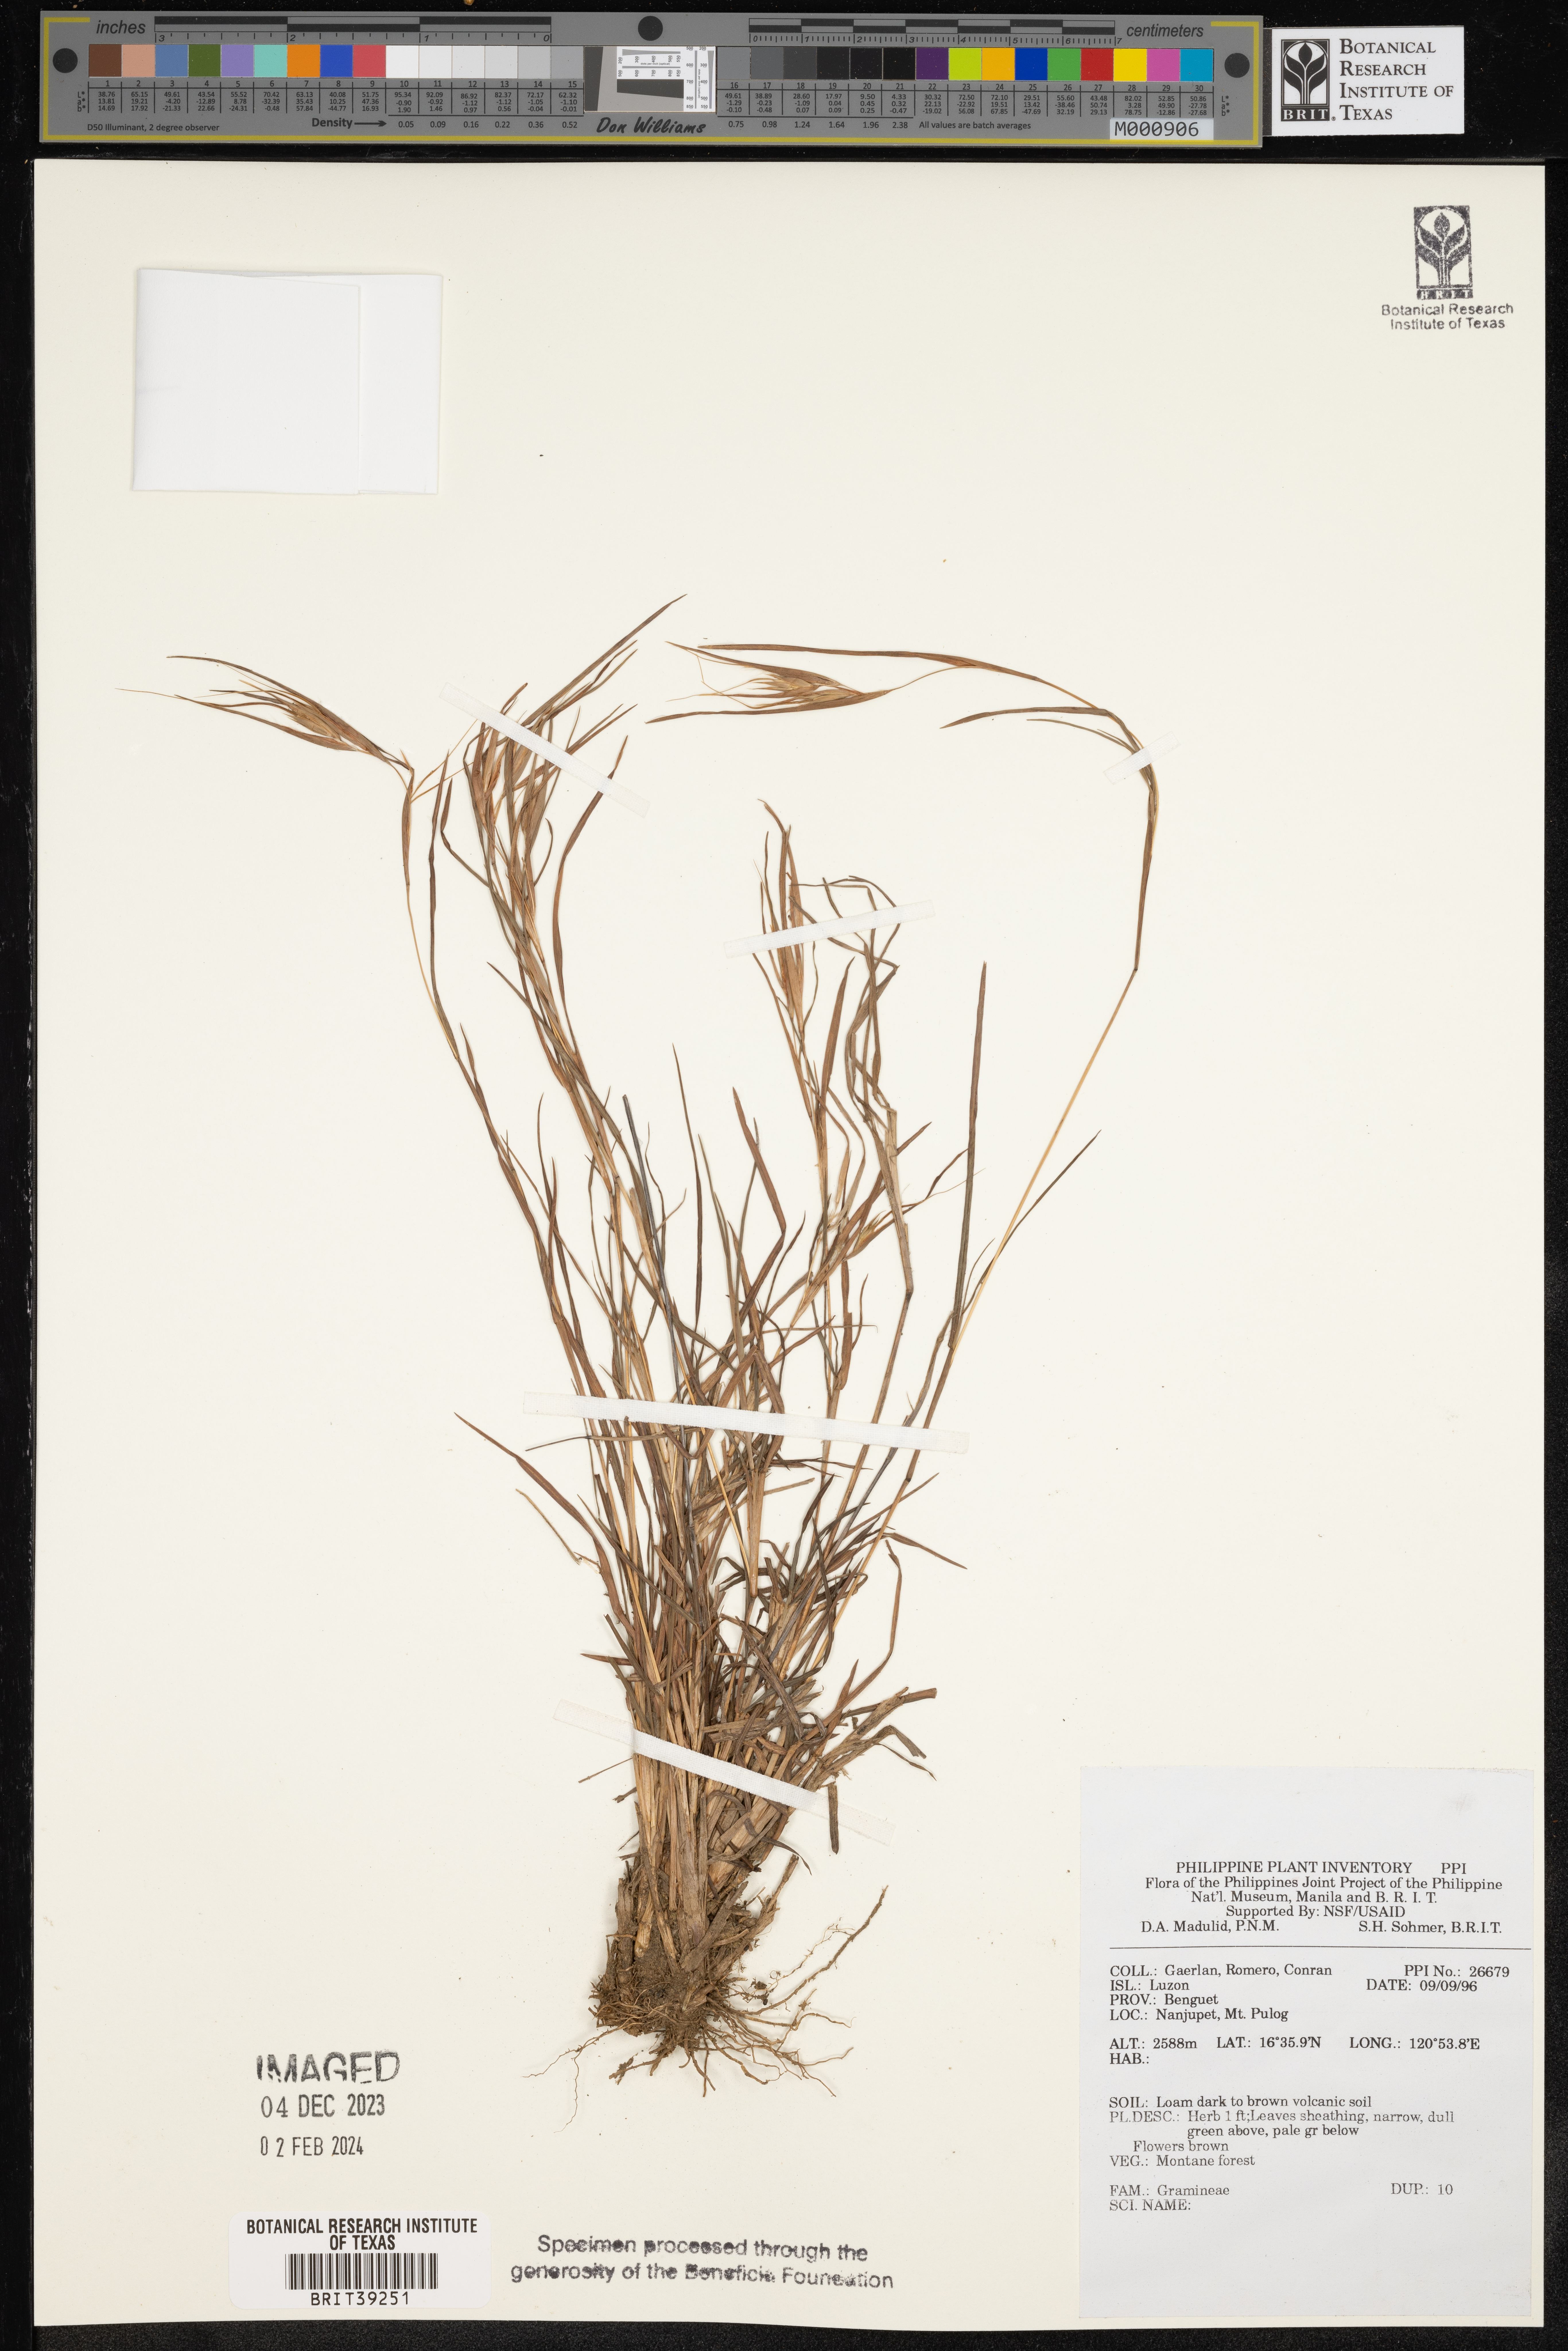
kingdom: Plantae
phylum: Tracheophyta
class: Liliopsida
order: Poales
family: Poaceae
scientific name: Poaceae
